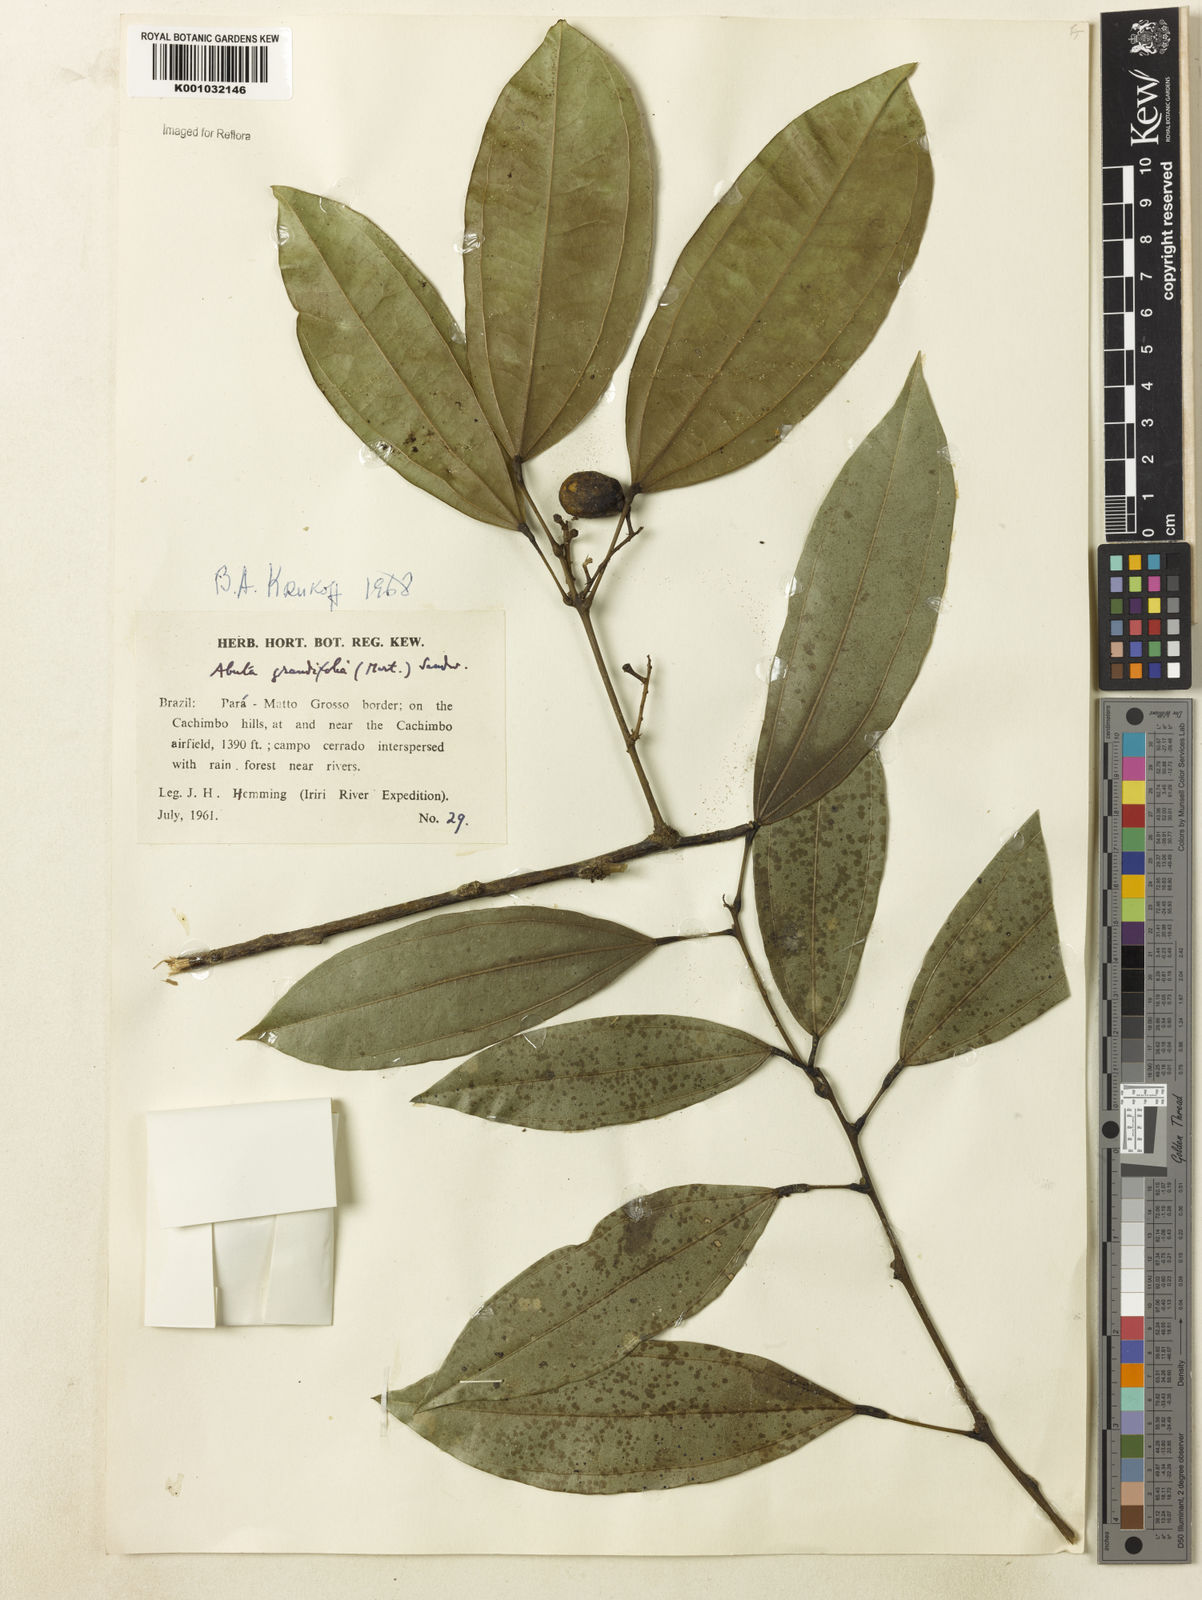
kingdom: Plantae
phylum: Tracheophyta
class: Magnoliopsida
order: Ranunculales
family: Menispermaceae
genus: Abuta
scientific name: Abuta grandifolia
